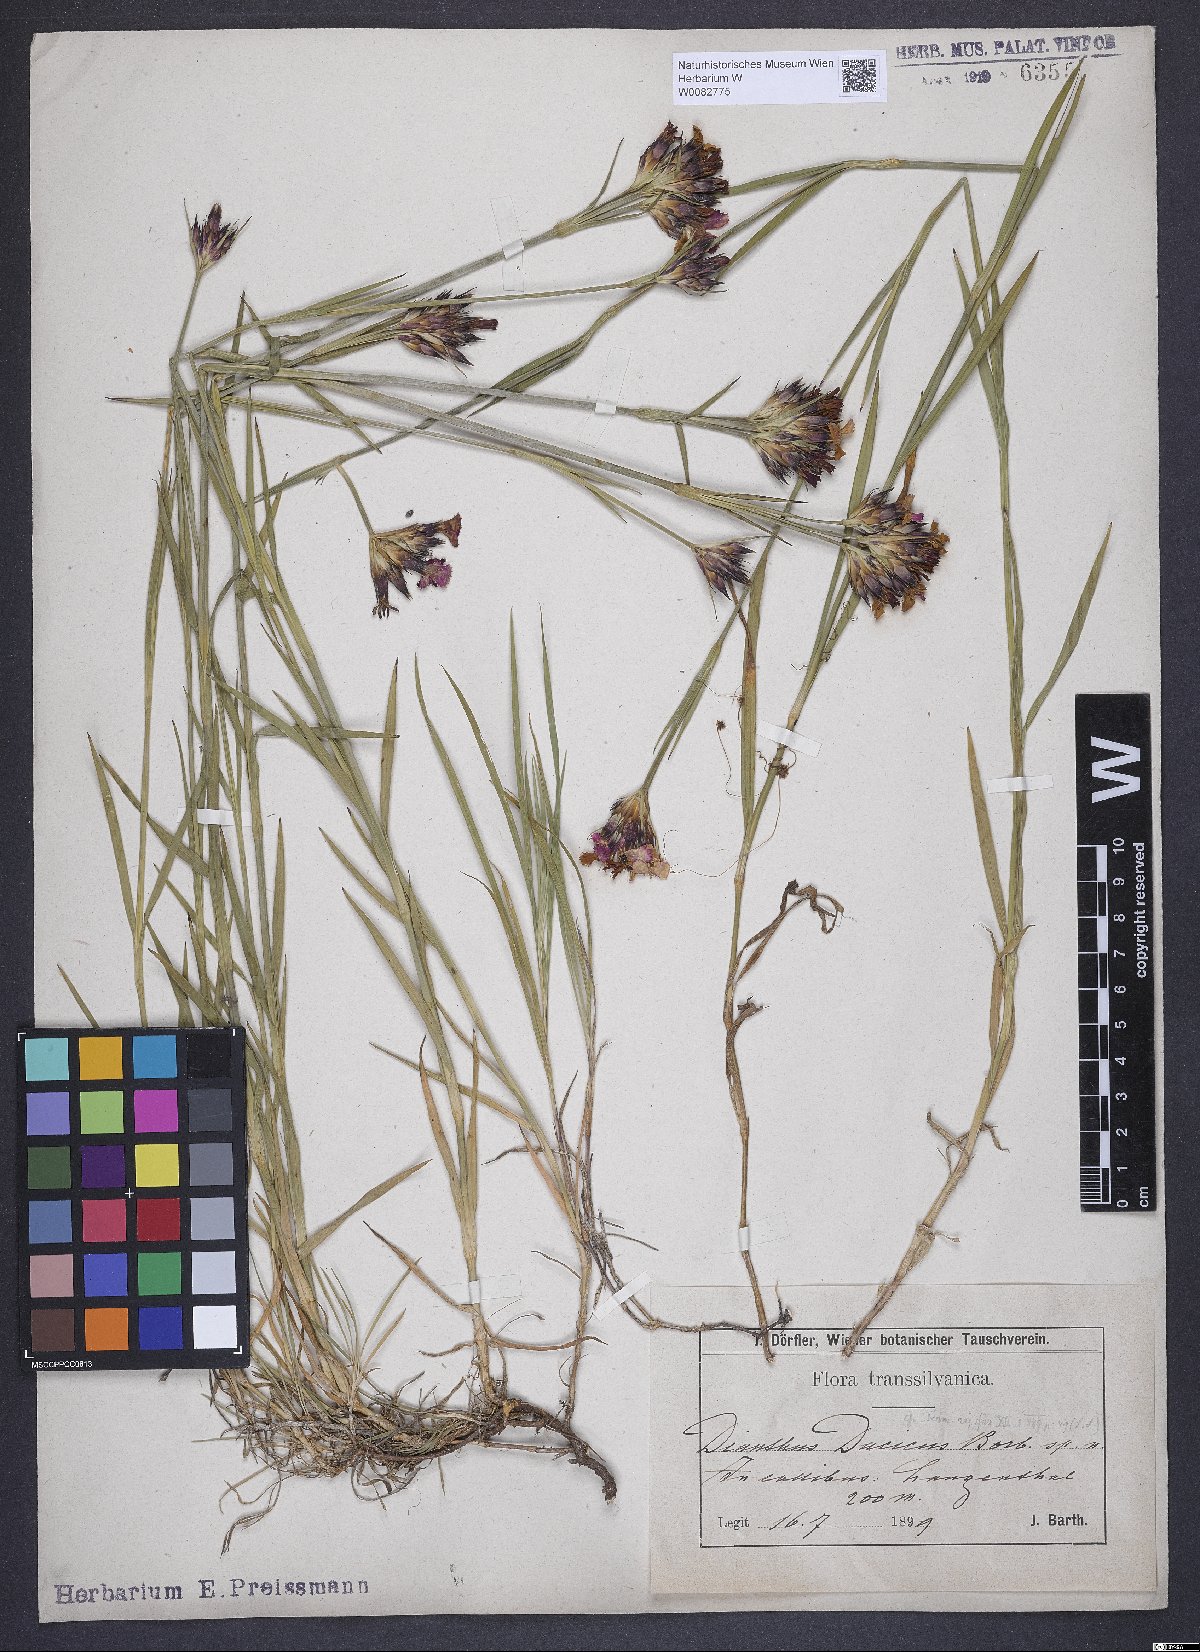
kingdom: Plantae
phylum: Tracheophyta
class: Magnoliopsida
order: Caryophyllales
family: Caryophyllaceae
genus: Dianthus
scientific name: Dianthus
